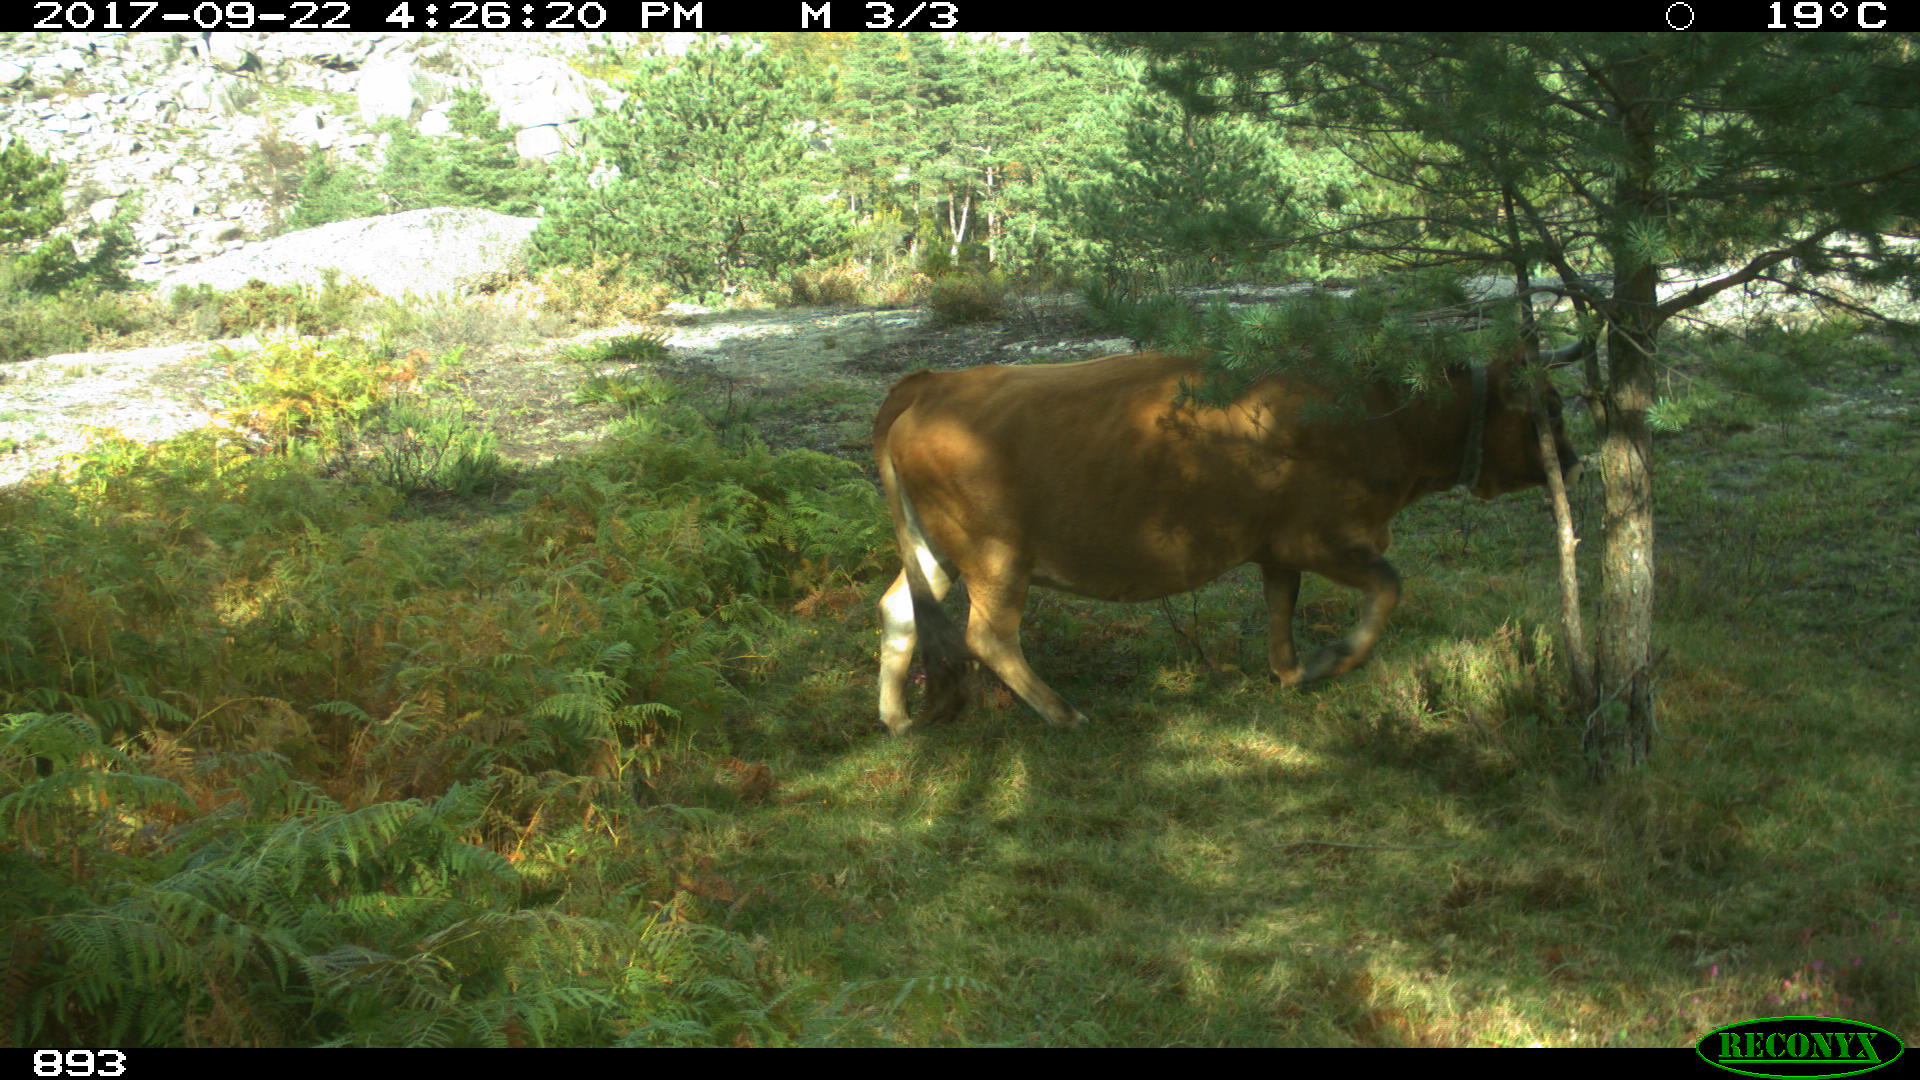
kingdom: Animalia
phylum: Chordata
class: Mammalia
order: Artiodactyla
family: Bovidae
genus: Bos
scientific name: Bos taurus
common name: Domesticated cattle
